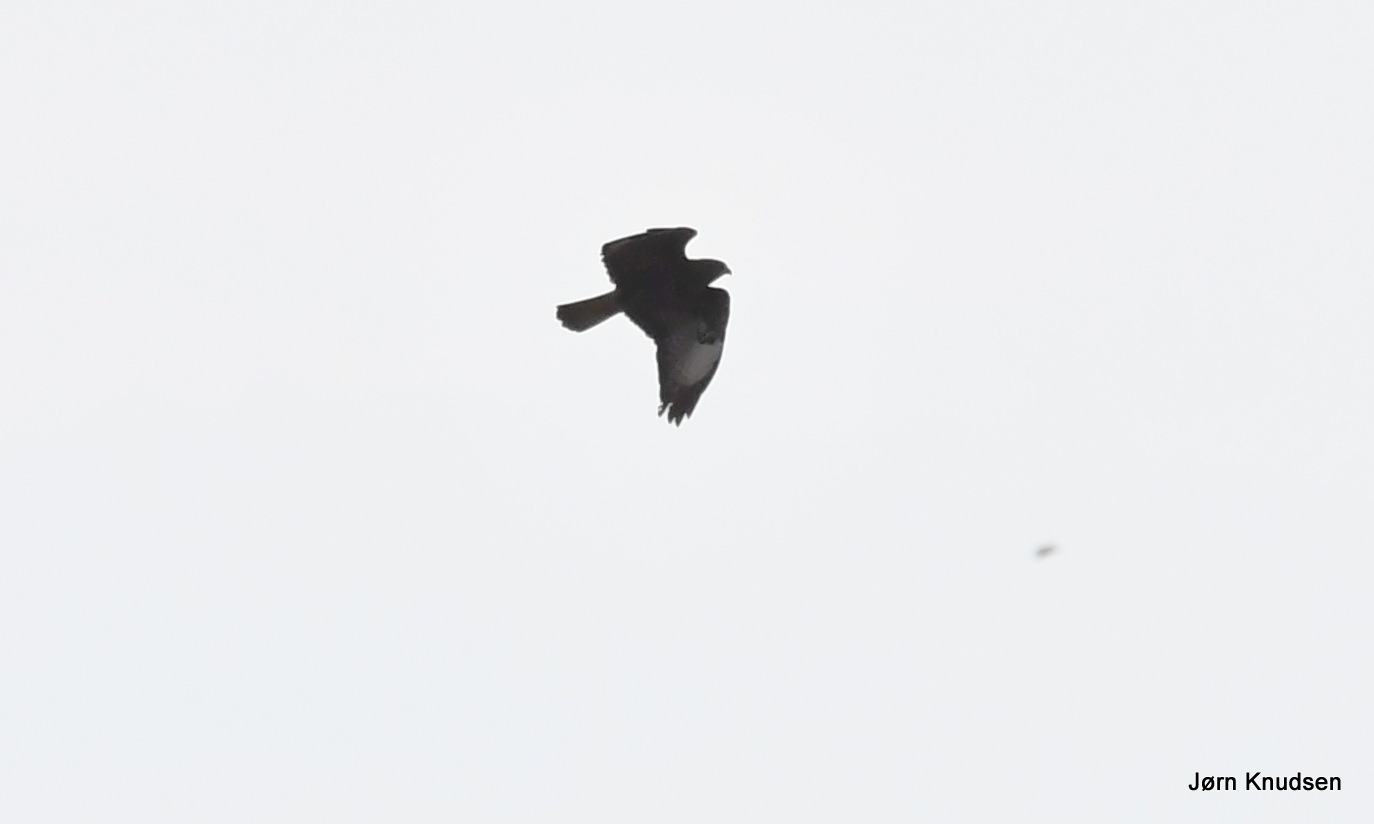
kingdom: Animalia
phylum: Chordata
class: Aves
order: Accipitriformes
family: Accipitridae
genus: Buteo
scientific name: Buteo buteo
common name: Musvåge
